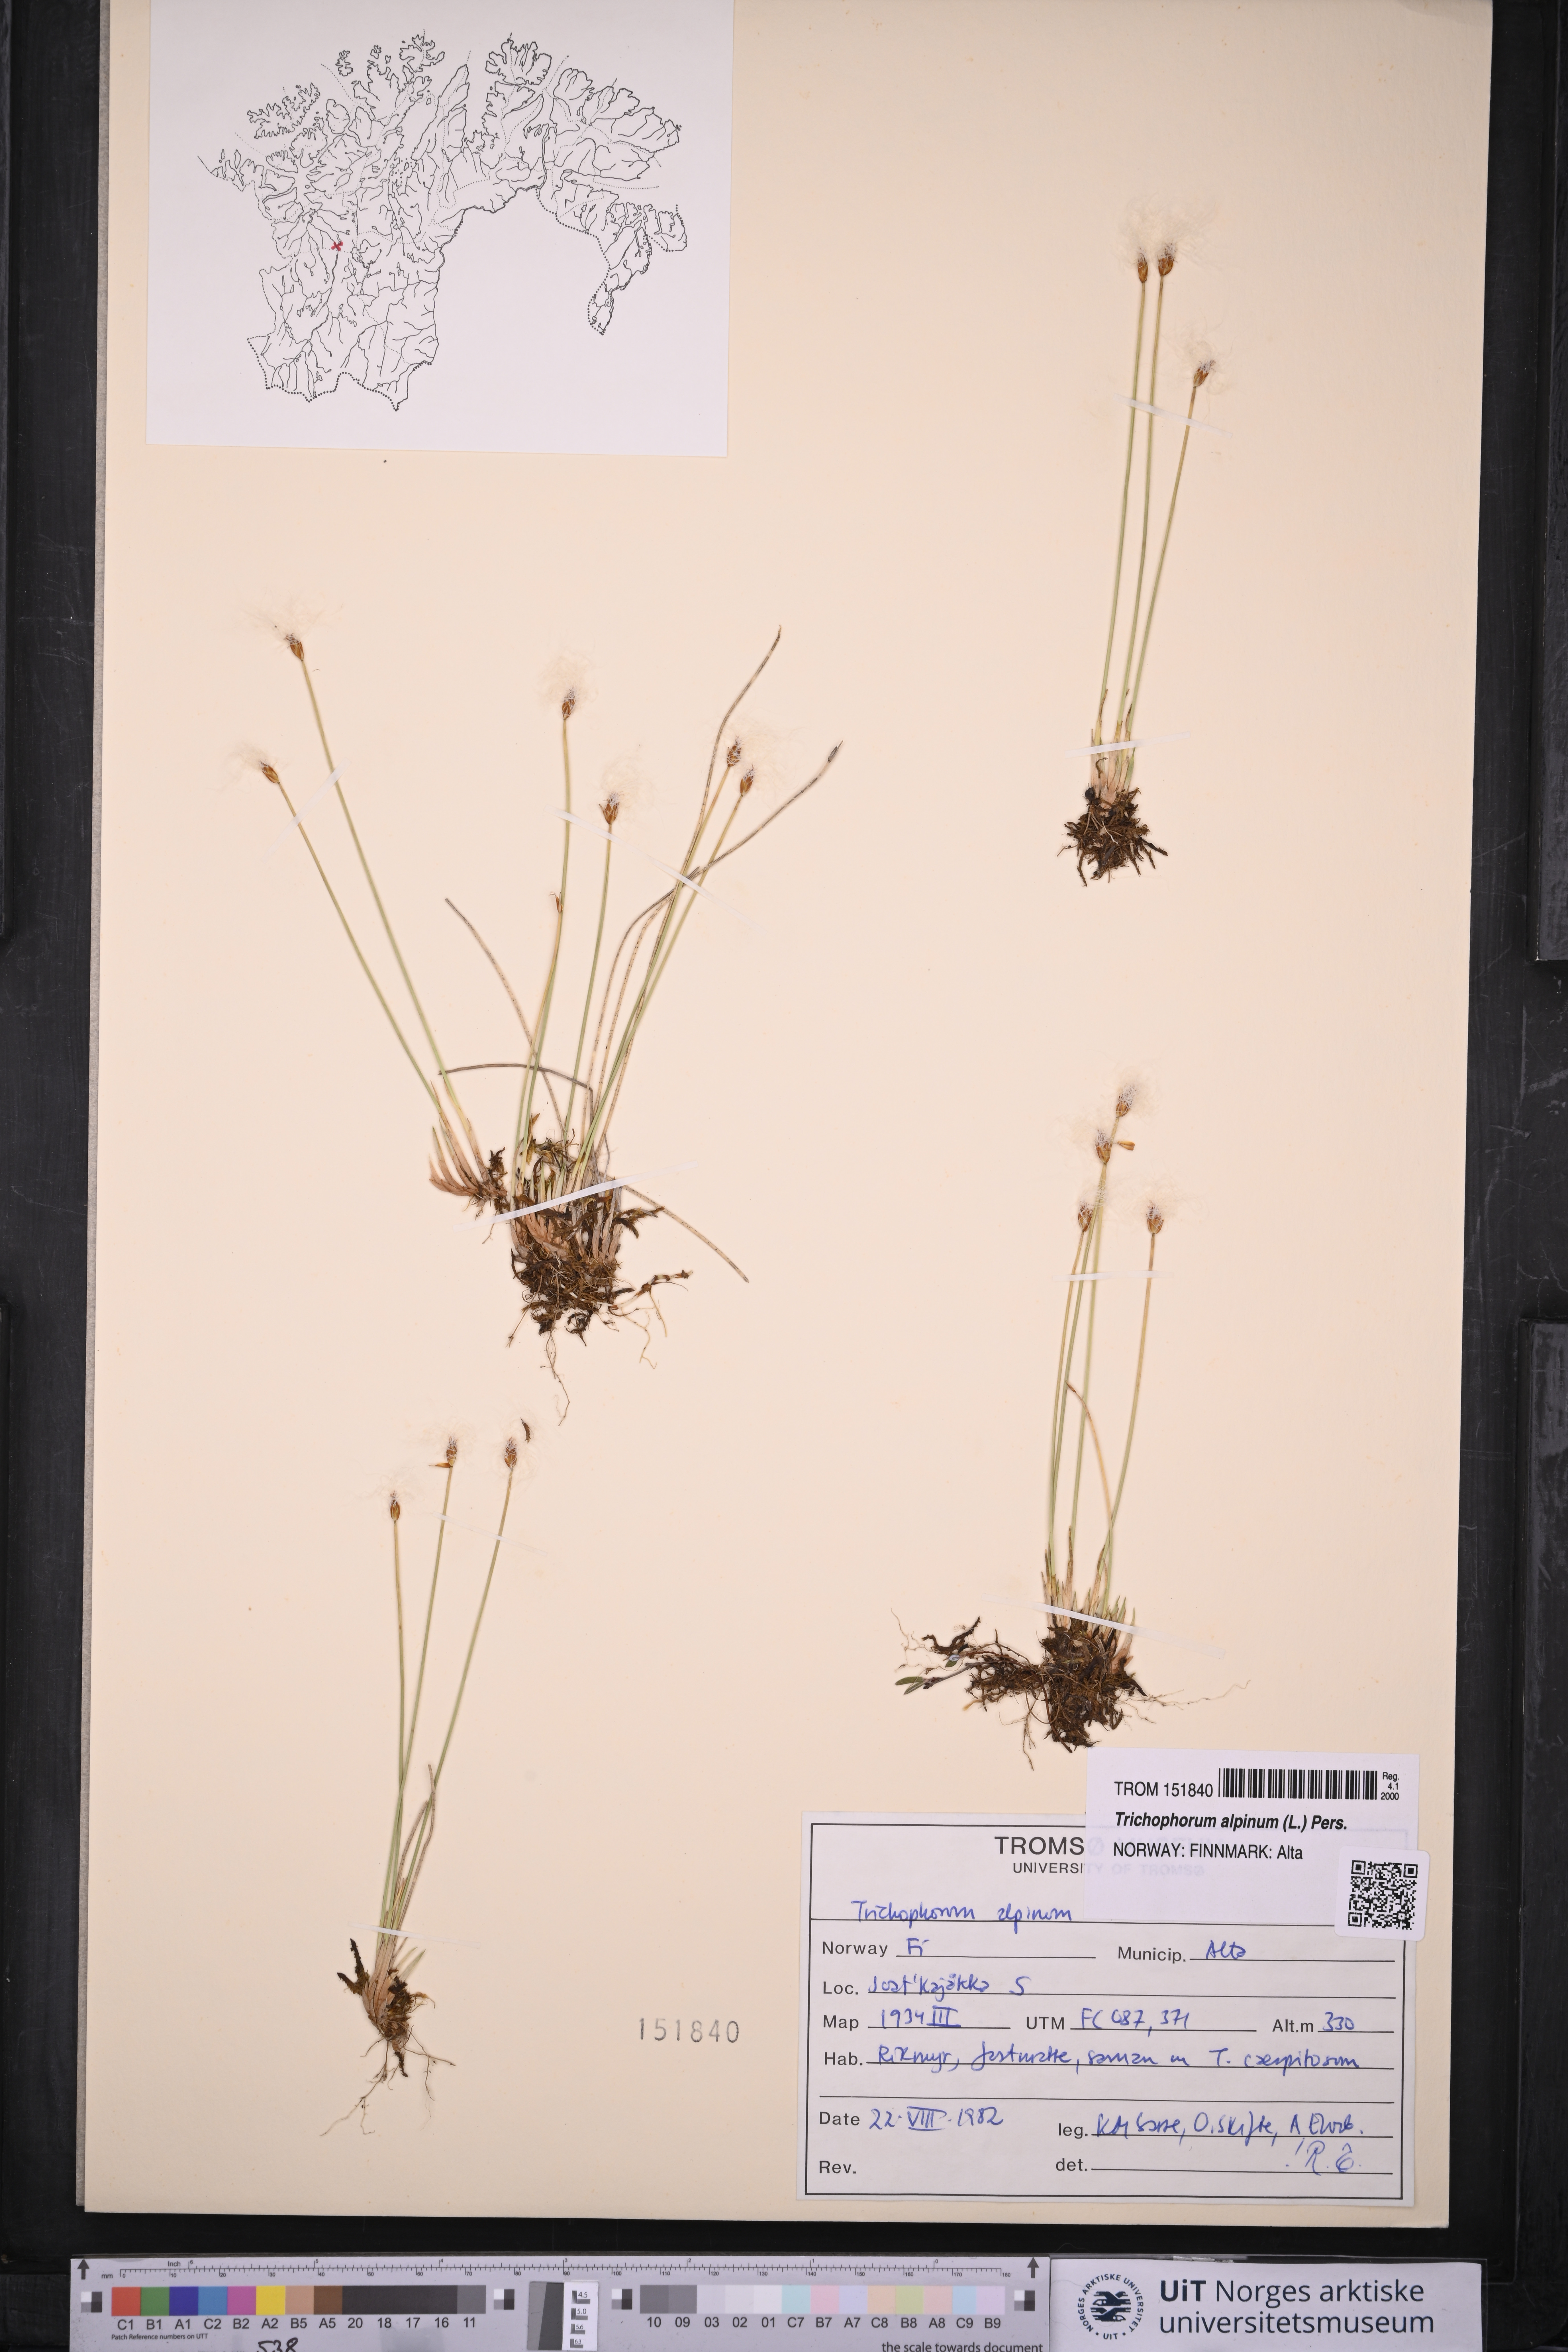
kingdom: Plantae
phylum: Tracheophyta
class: Liliopsida
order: Poales
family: Cyperaceae
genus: Trichophorum
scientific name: Trichophorum alpinum
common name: Alpine bulrush
